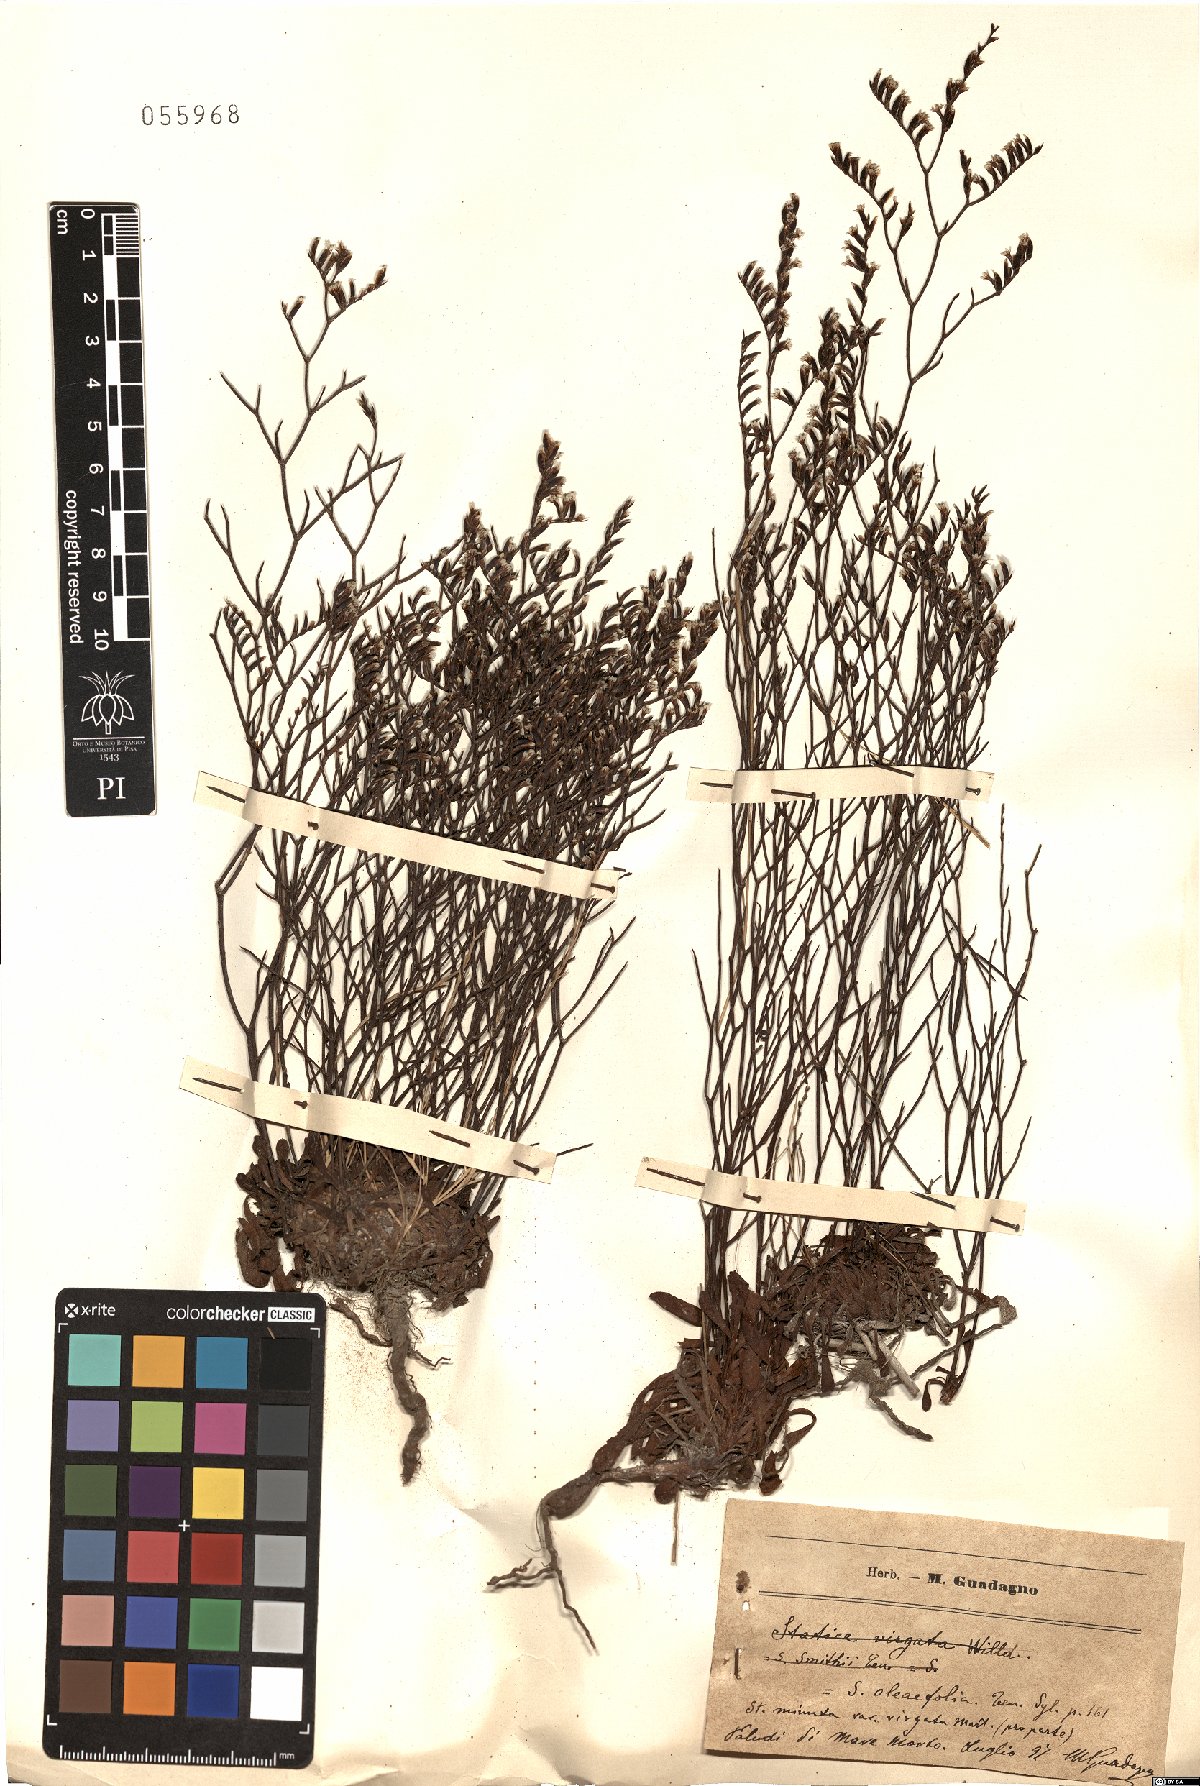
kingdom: Plantae
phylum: Tracheophyta
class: Magnoliopsida
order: Caryophyllales
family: Plumbaginaceae
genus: Limonium
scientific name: Limonium
